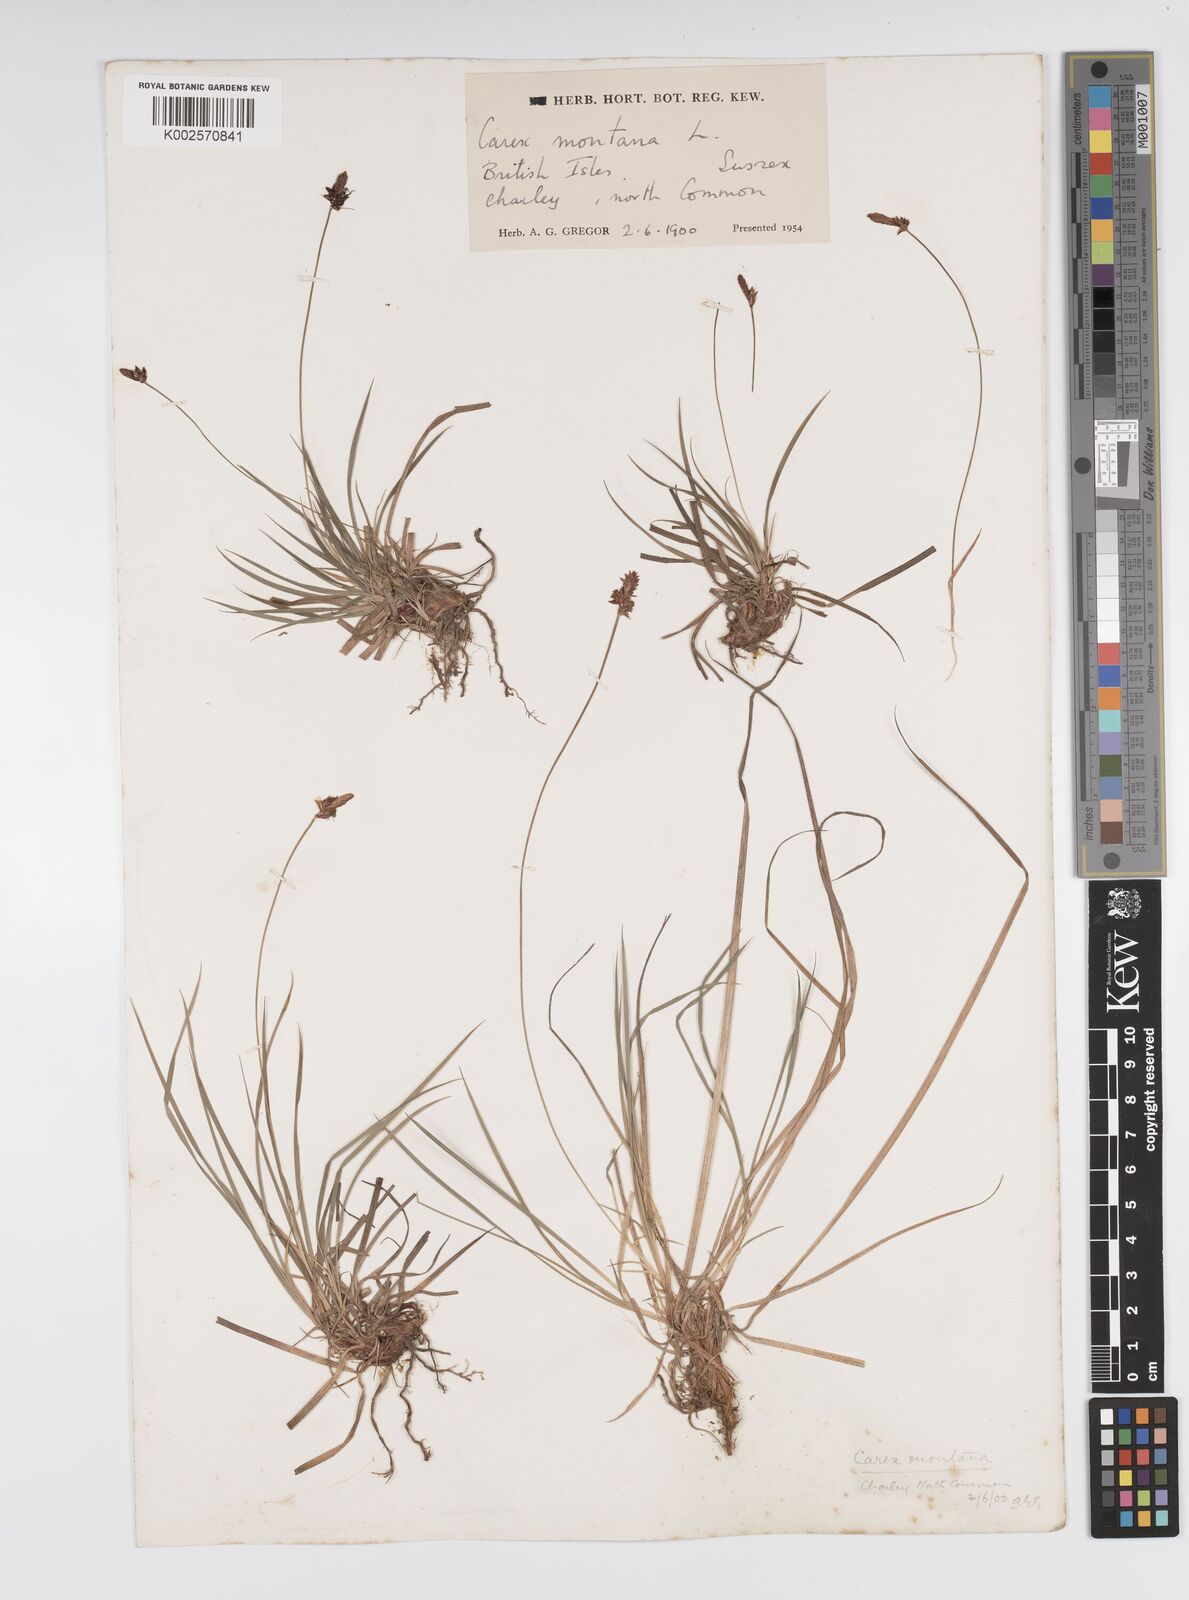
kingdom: Plantae
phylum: Tracheophyta
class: Liliopsida
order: Poales
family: Cyperaceae
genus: Carex
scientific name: Carex montana
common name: Soft-leaved sedge
